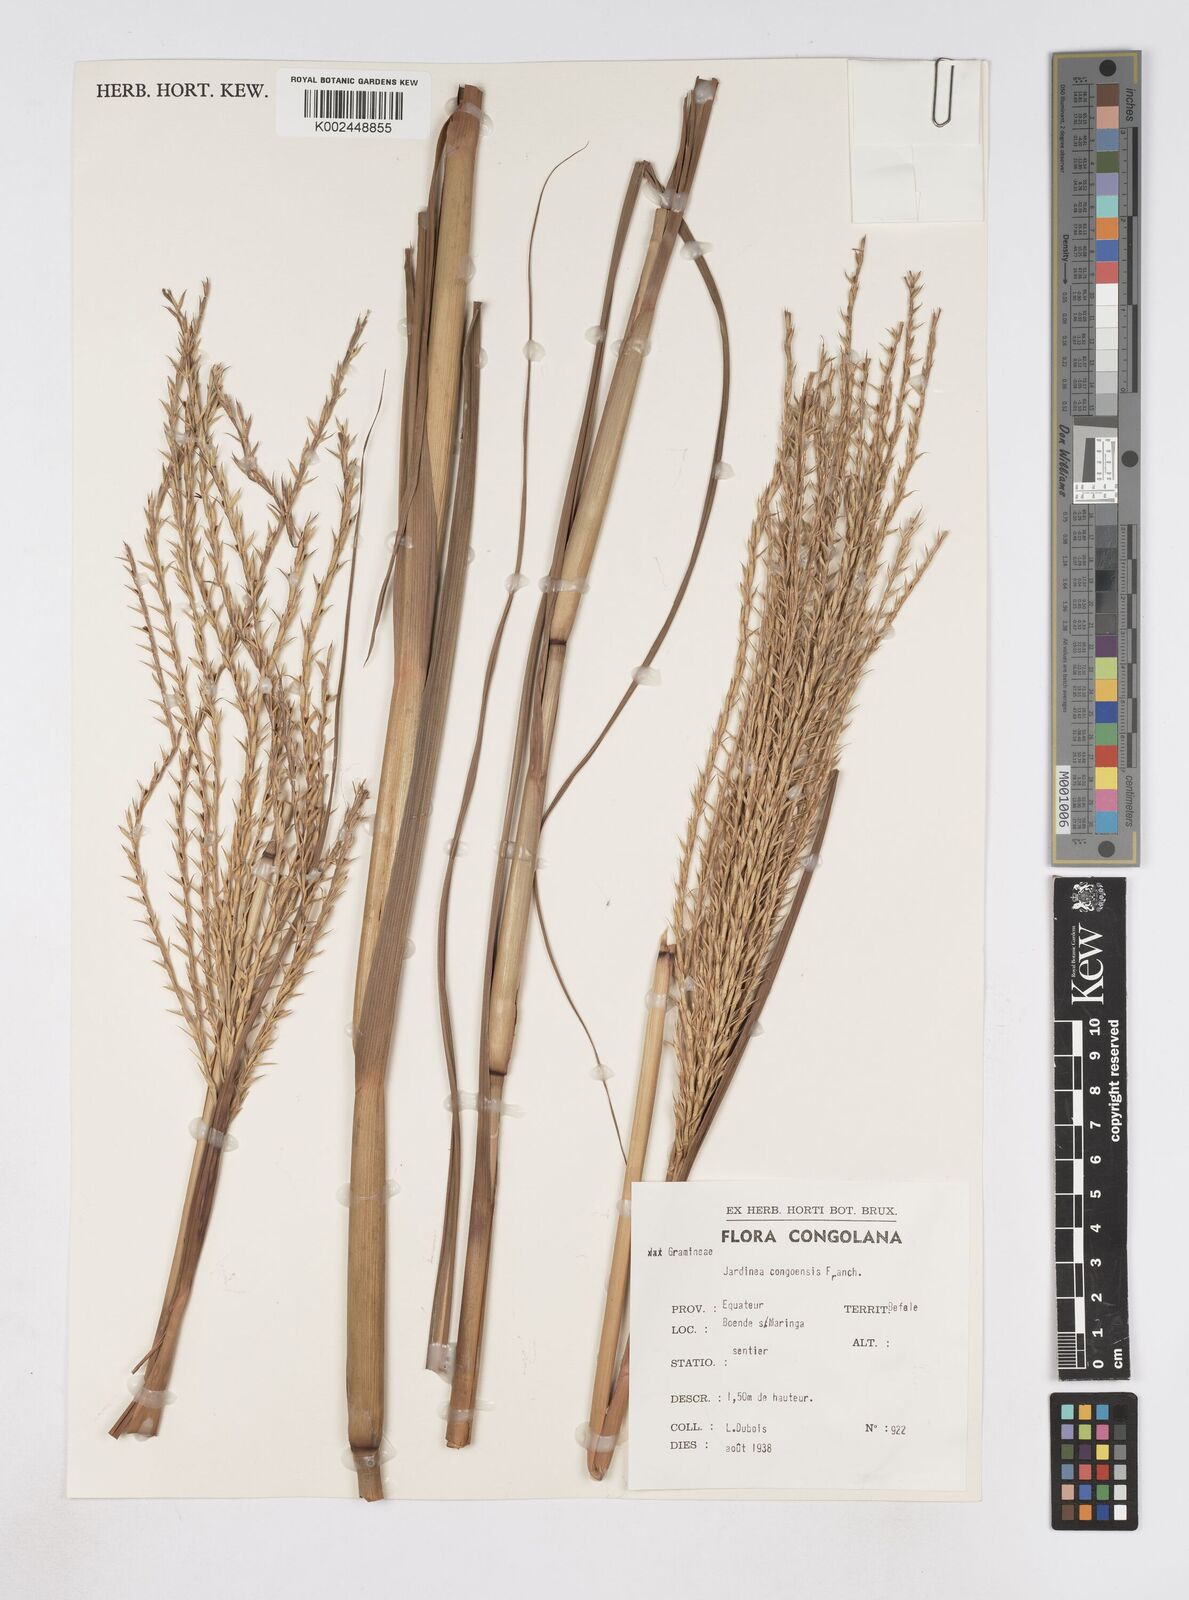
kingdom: Plantae
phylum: Tracheophyta
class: Liliopsida
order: Poales
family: Poaceae
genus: Phacelurus
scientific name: Phacelurus gabonensis
